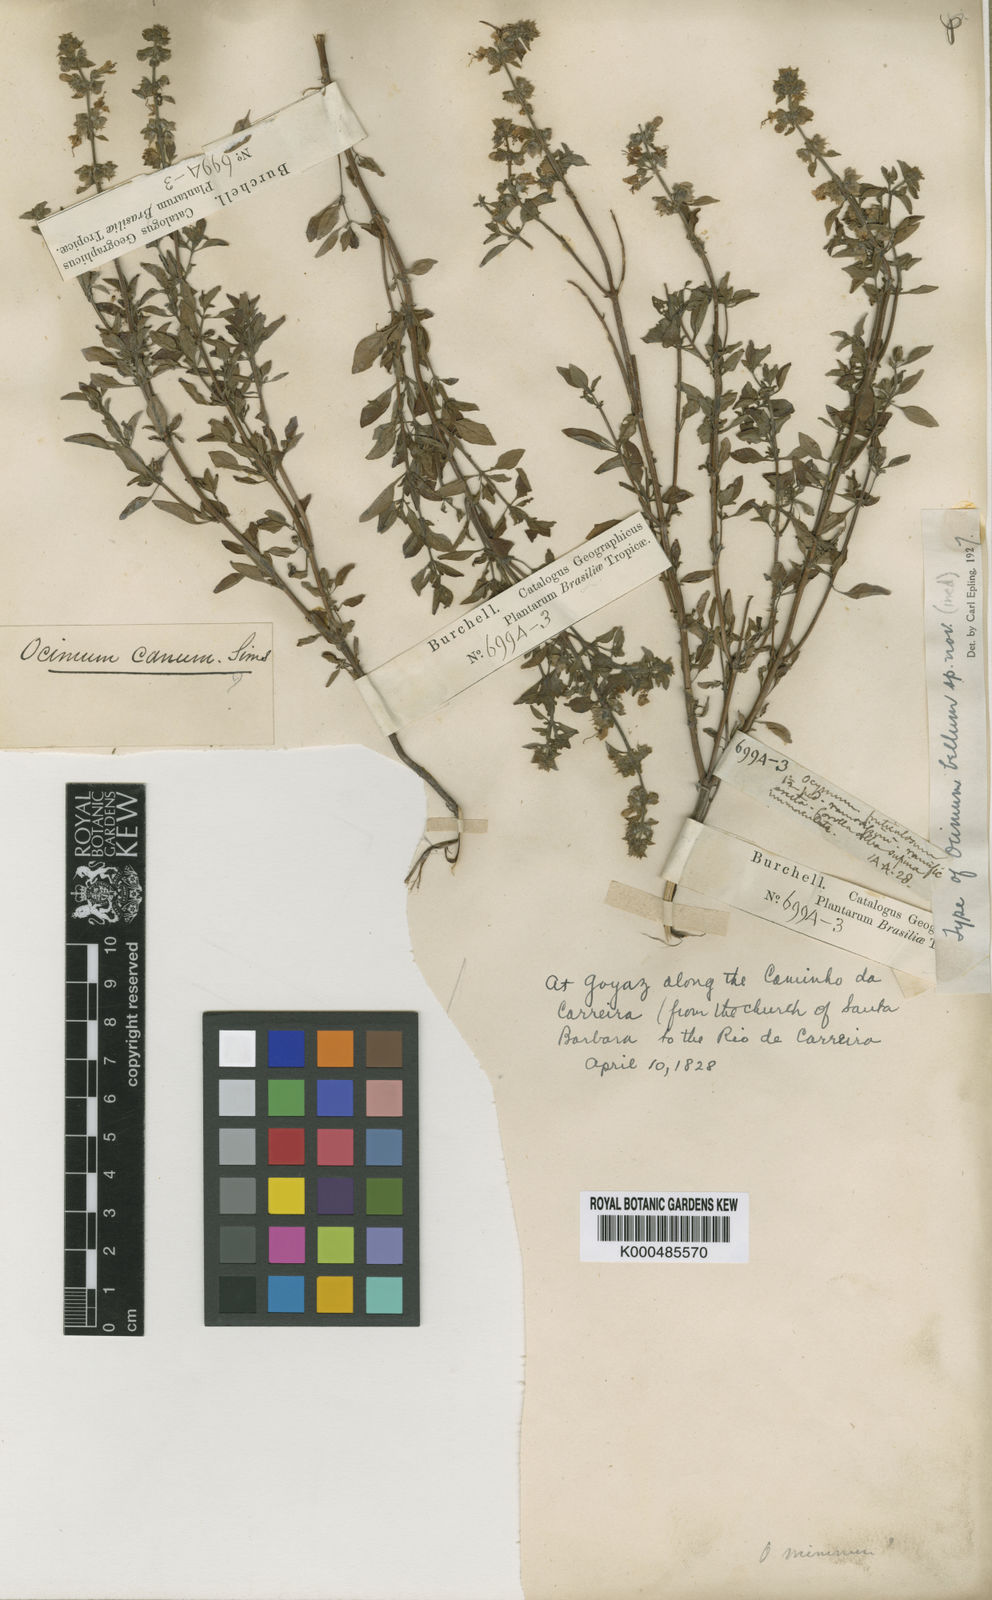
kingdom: Plantae
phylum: Tracheophyta
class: Magnoliopsida
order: Lamiales
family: Lamiaceae
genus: Ocimum
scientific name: Ocimum basilicum
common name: Sweet basil
